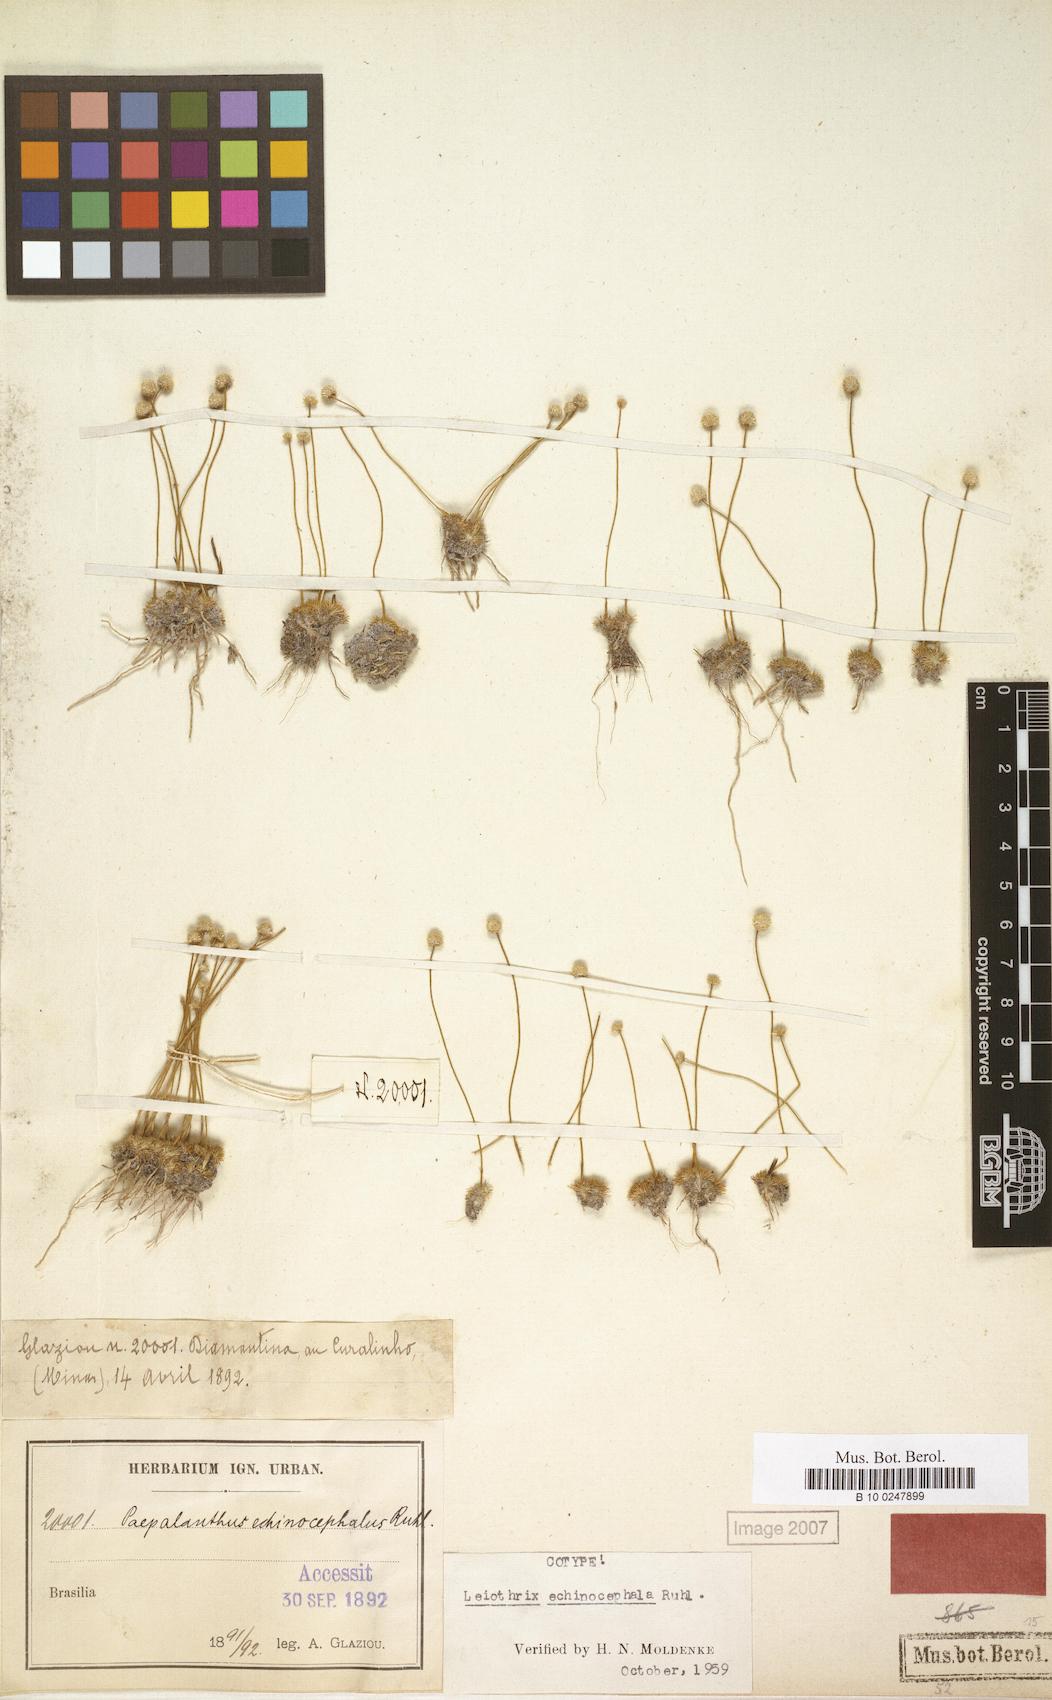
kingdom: Plantae
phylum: Tracheophyta
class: Liliopsida
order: Poales
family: Eriocaulaceae
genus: Leiothrix
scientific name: Leiothrix echinocephala
